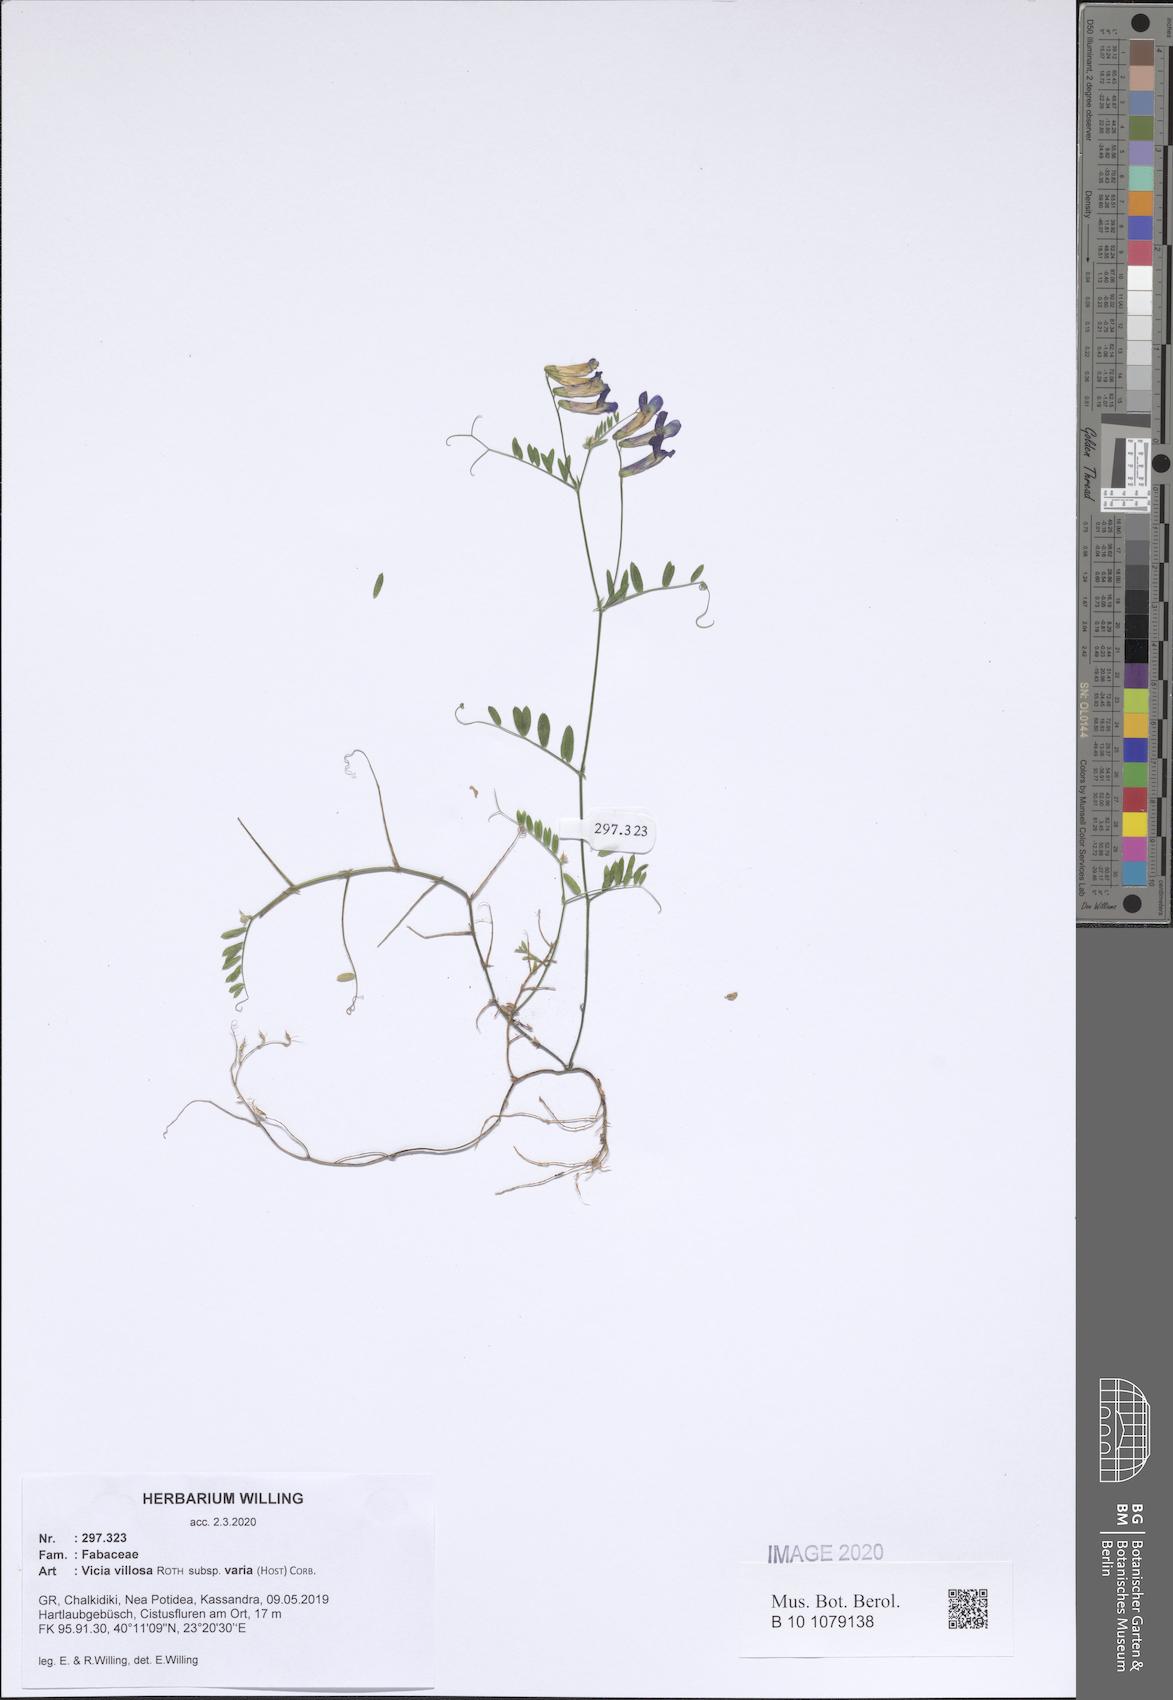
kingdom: Plantae
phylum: Tracheophyta
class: Magnoliopsida
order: Fabales
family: Fabaceae
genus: Vicia
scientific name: Vicia villosa
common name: Fodder vetch
